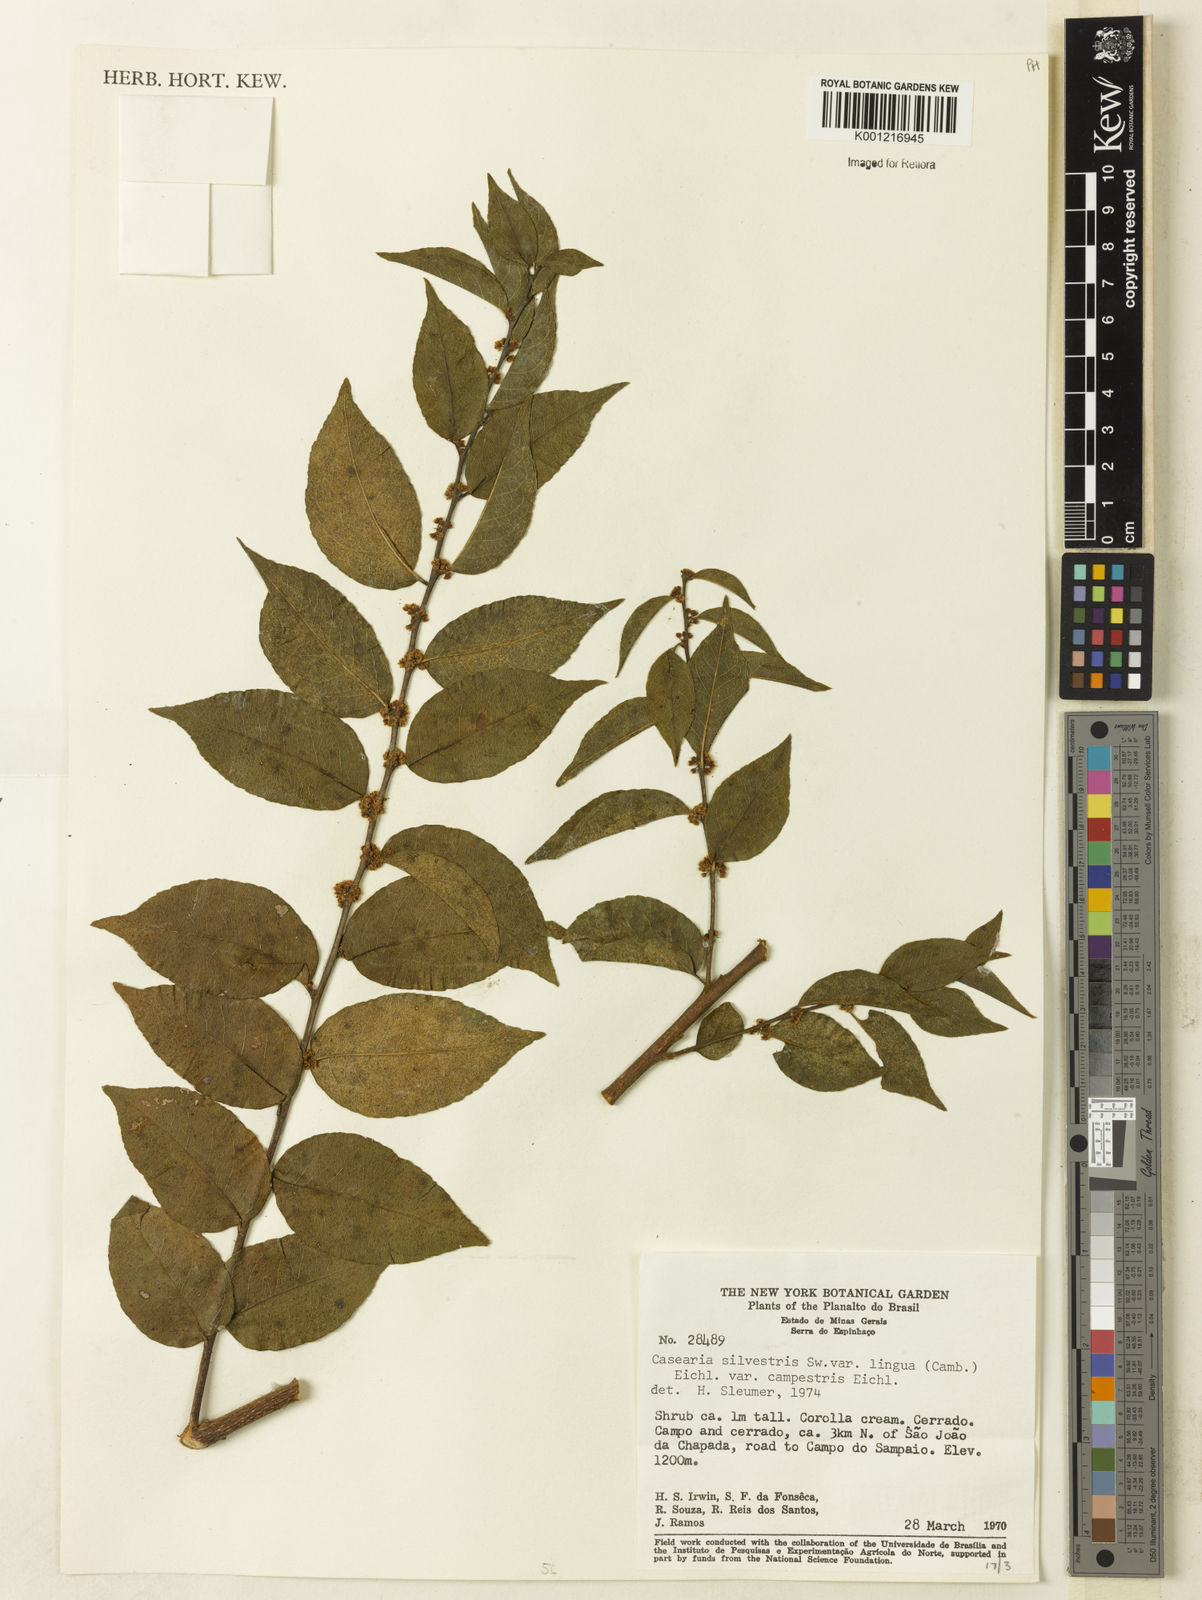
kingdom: Plantae
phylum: Tracheophyta
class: Magnoliopsida
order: Malpighiales
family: Salicaceae
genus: Casearia
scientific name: Casearia sylvestris
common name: Wild sage
